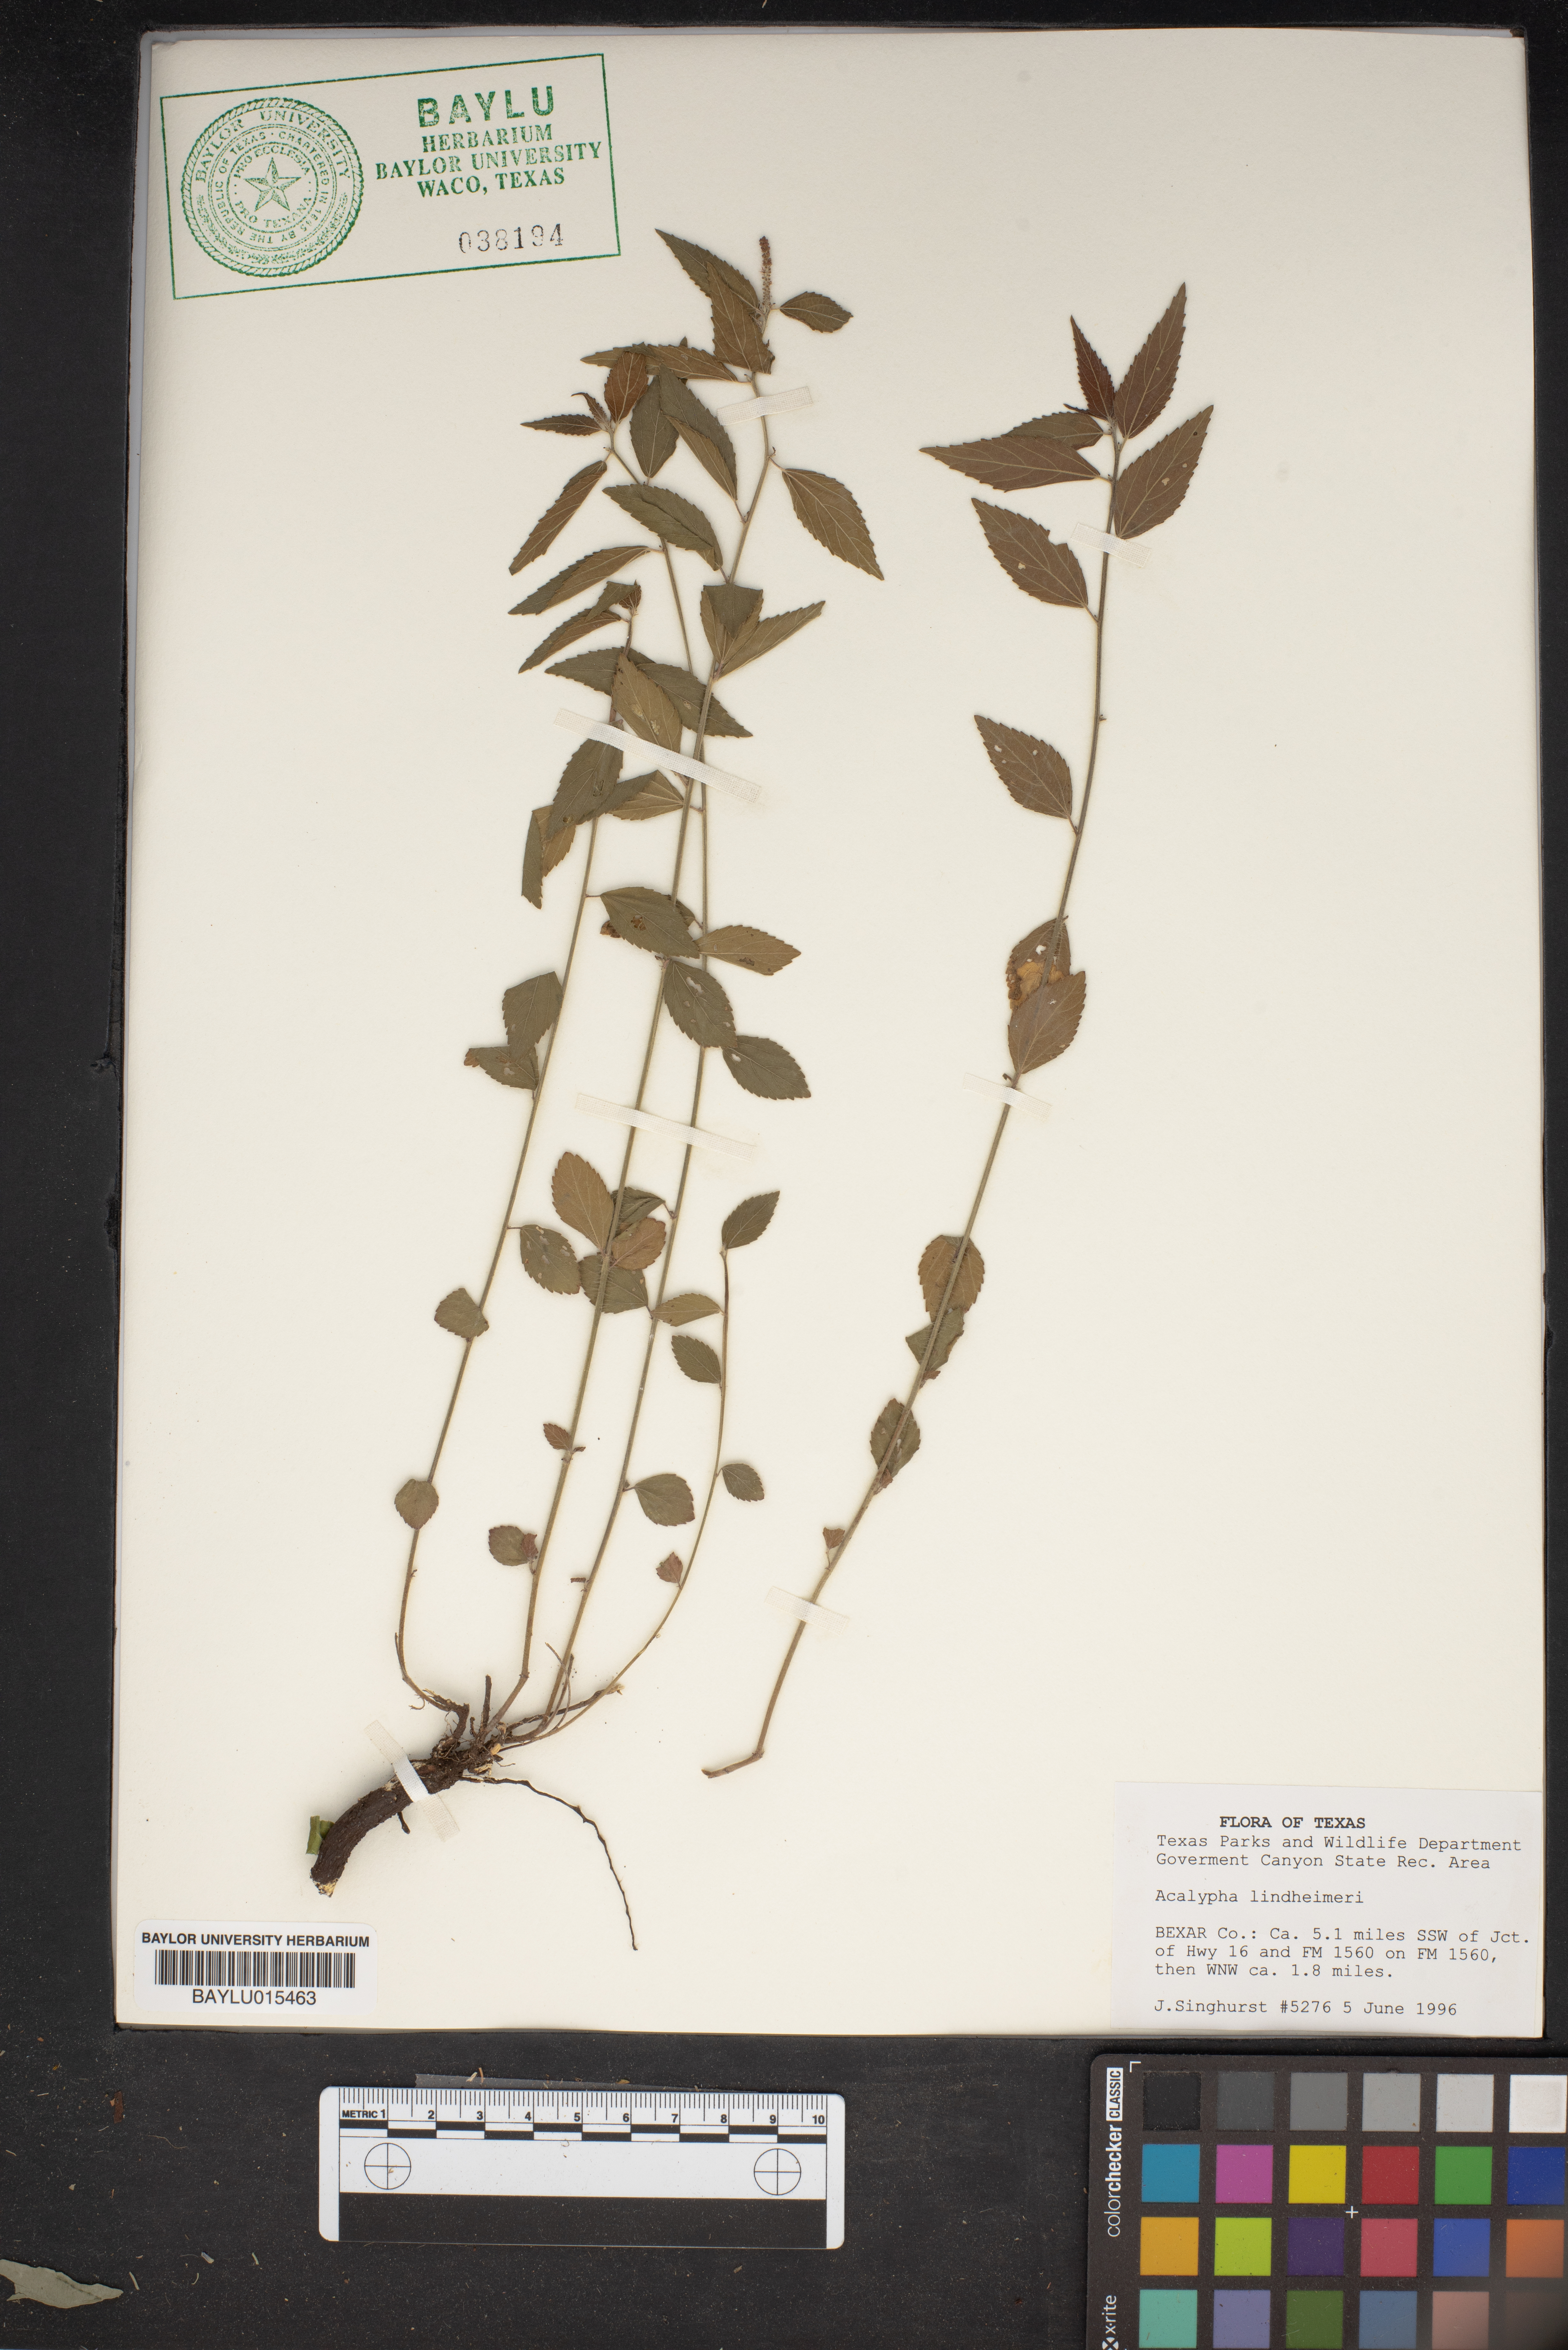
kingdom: Plantae
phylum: Tracheophyta
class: Magnoliopsida
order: Malpighiales
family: Euphorbiaceae
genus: Acalypha
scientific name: Acalypha phleoides
